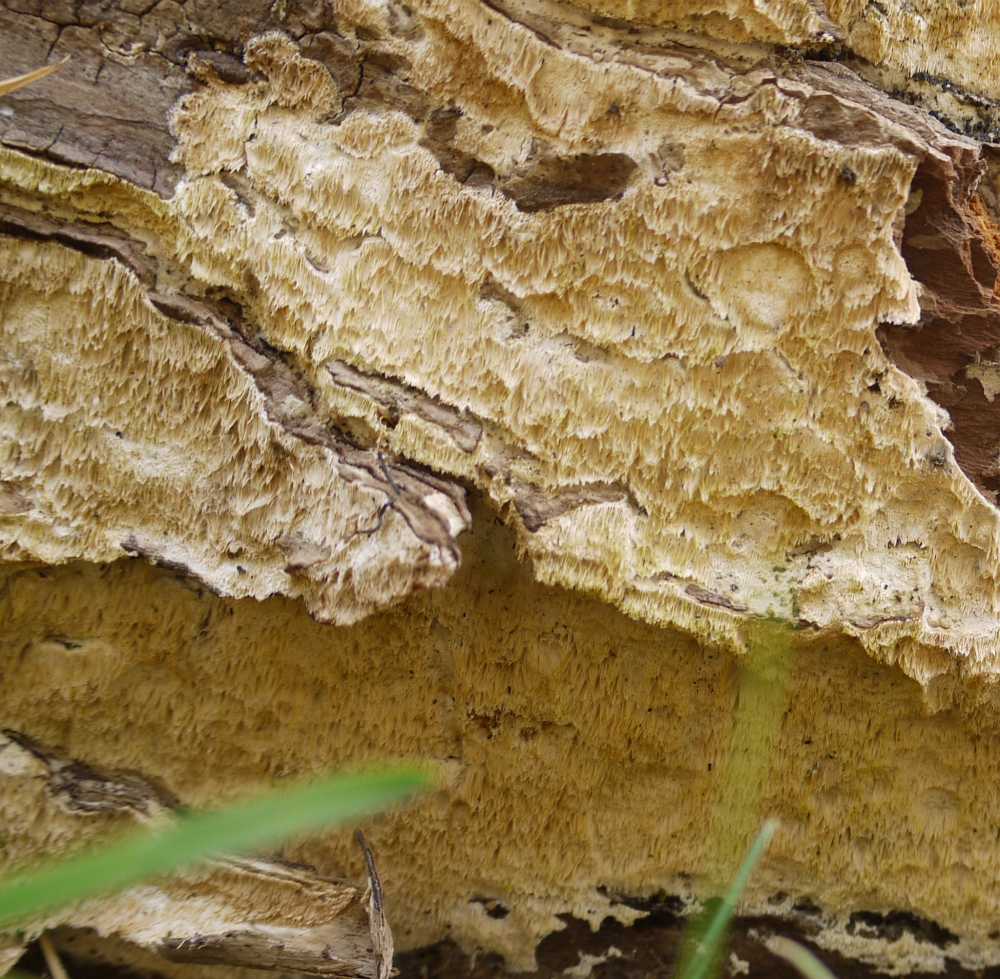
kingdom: Fungi
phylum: Basidiomycota
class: Agaricomycetes
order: Polyporales
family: Irpicaceae
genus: Resiniporus
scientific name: Resiniporus resinascens
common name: trist pastelporesvamp
